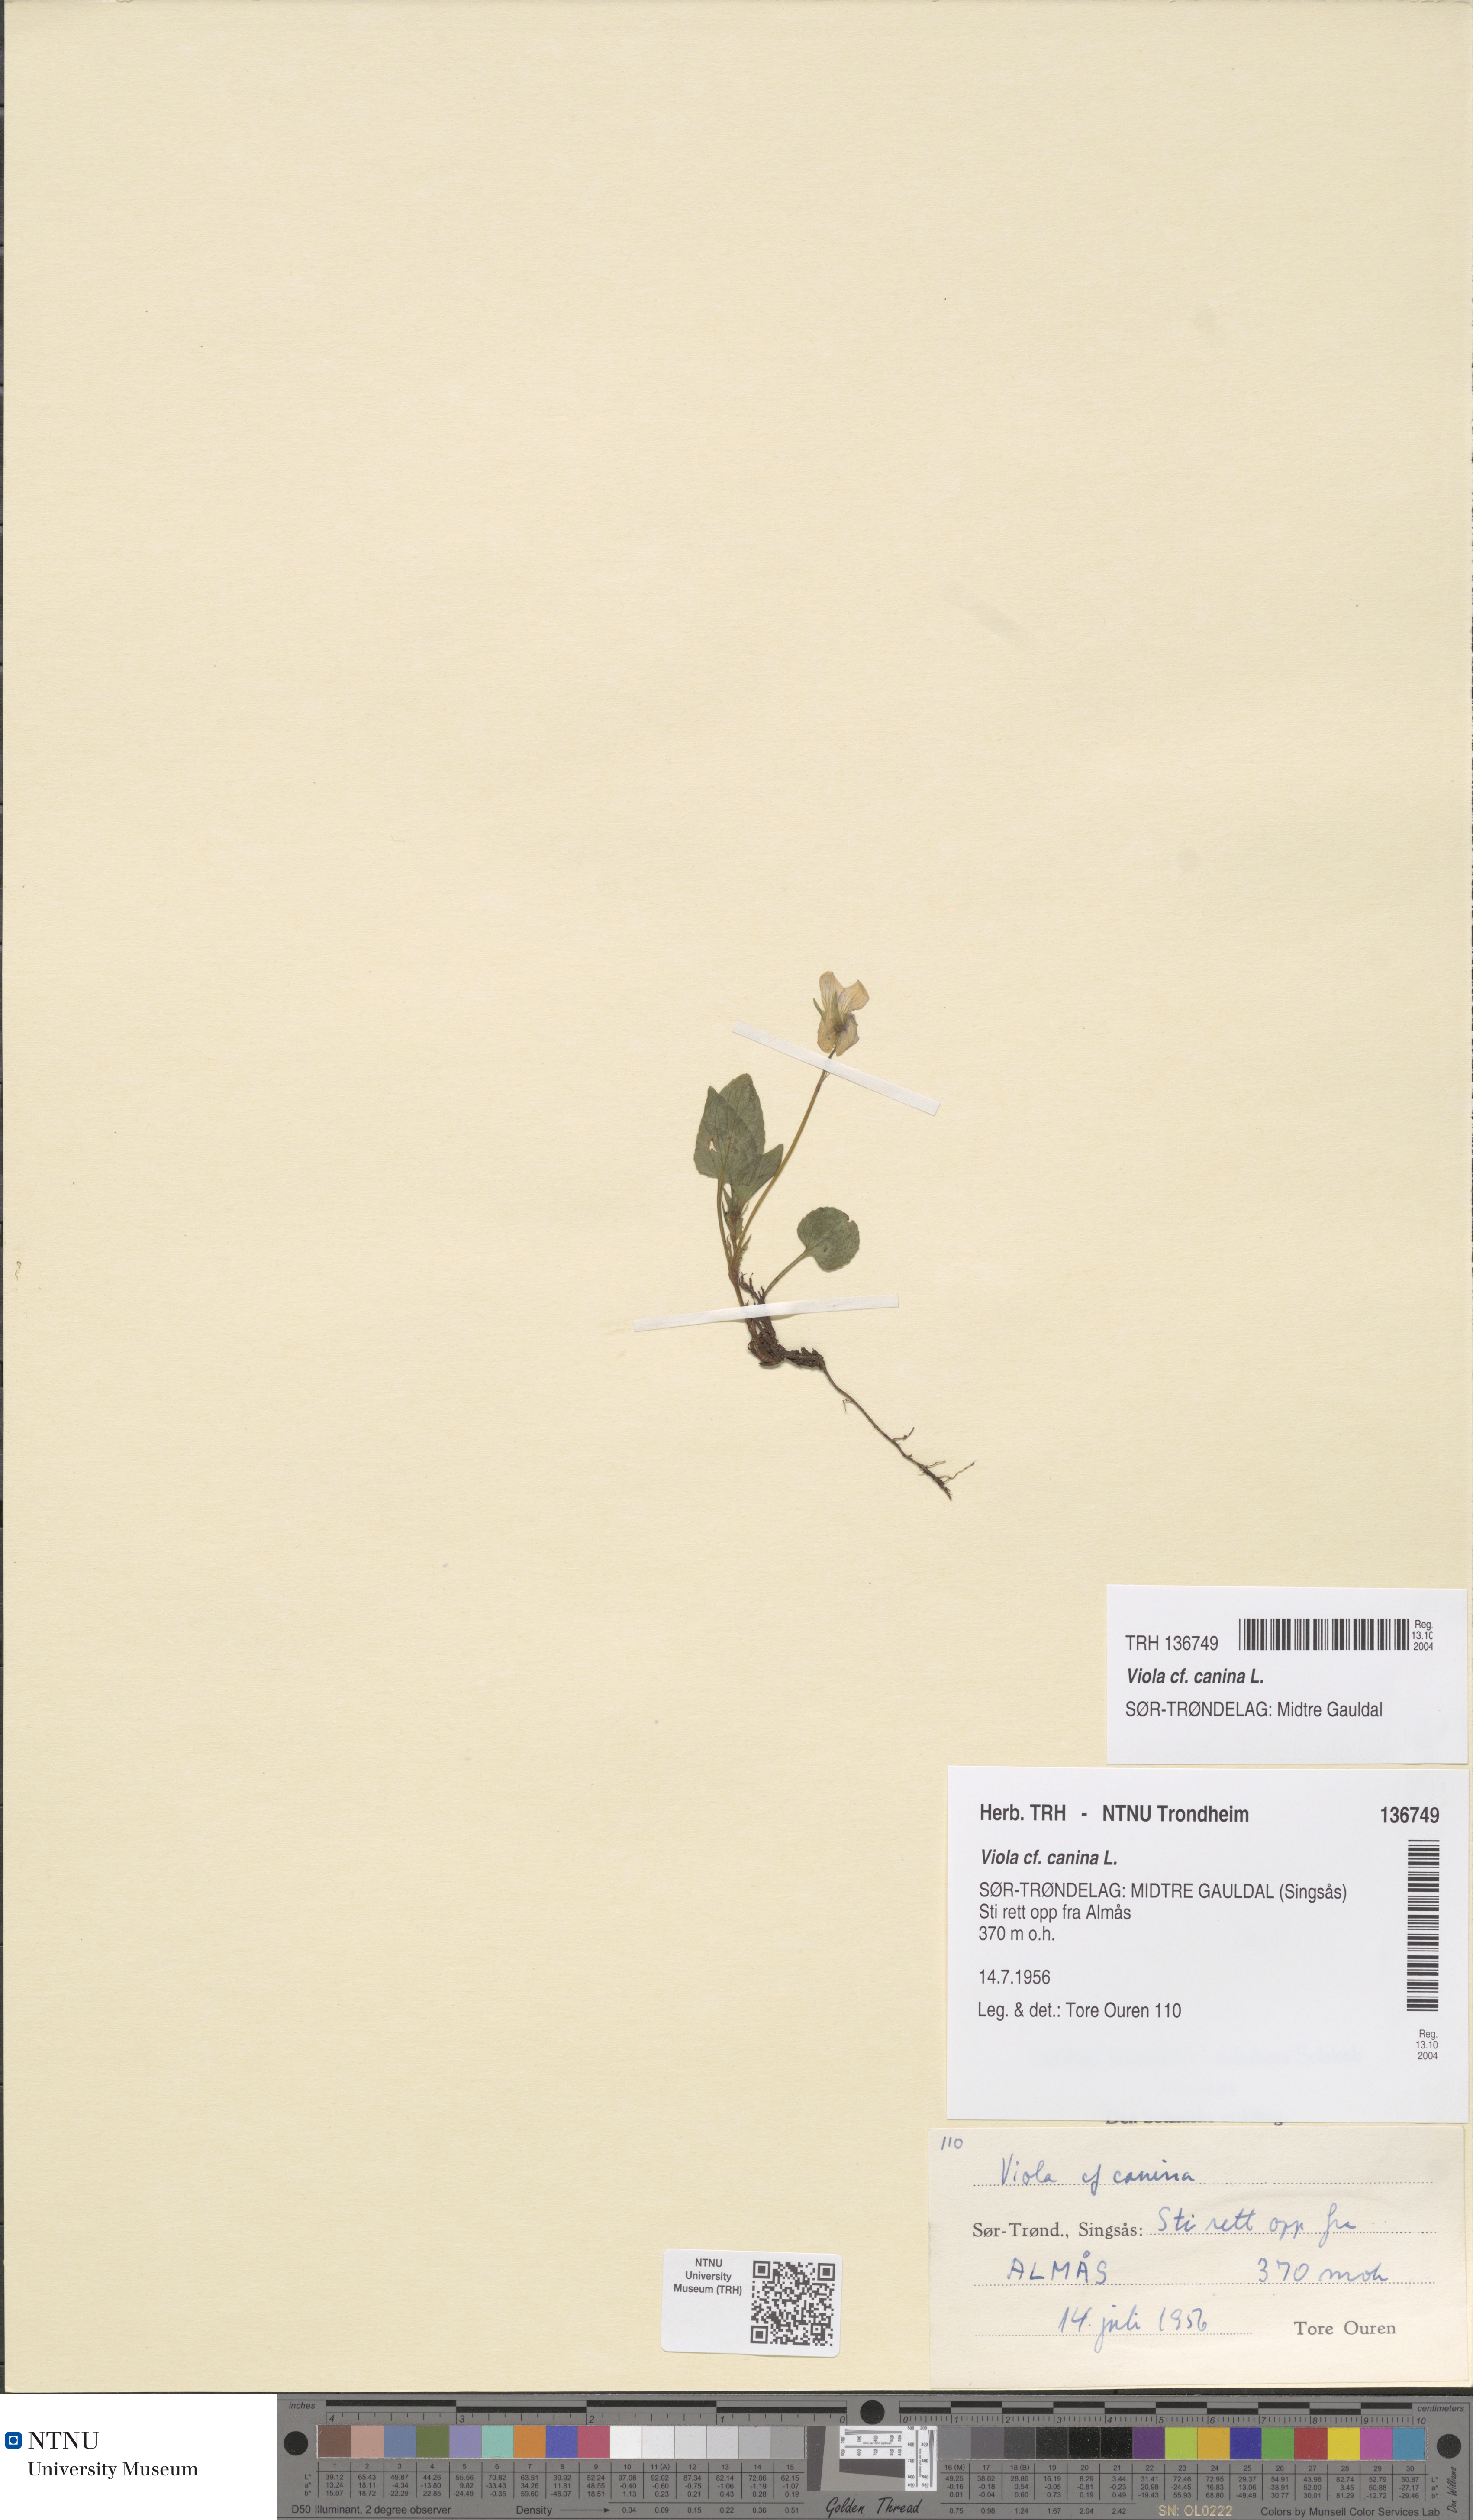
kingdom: Plantae
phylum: Tracheophyta
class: Magnoliopsida
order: Malpighiales
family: Violaceae
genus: Viola
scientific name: Viola canina
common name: Heath dog-violet
